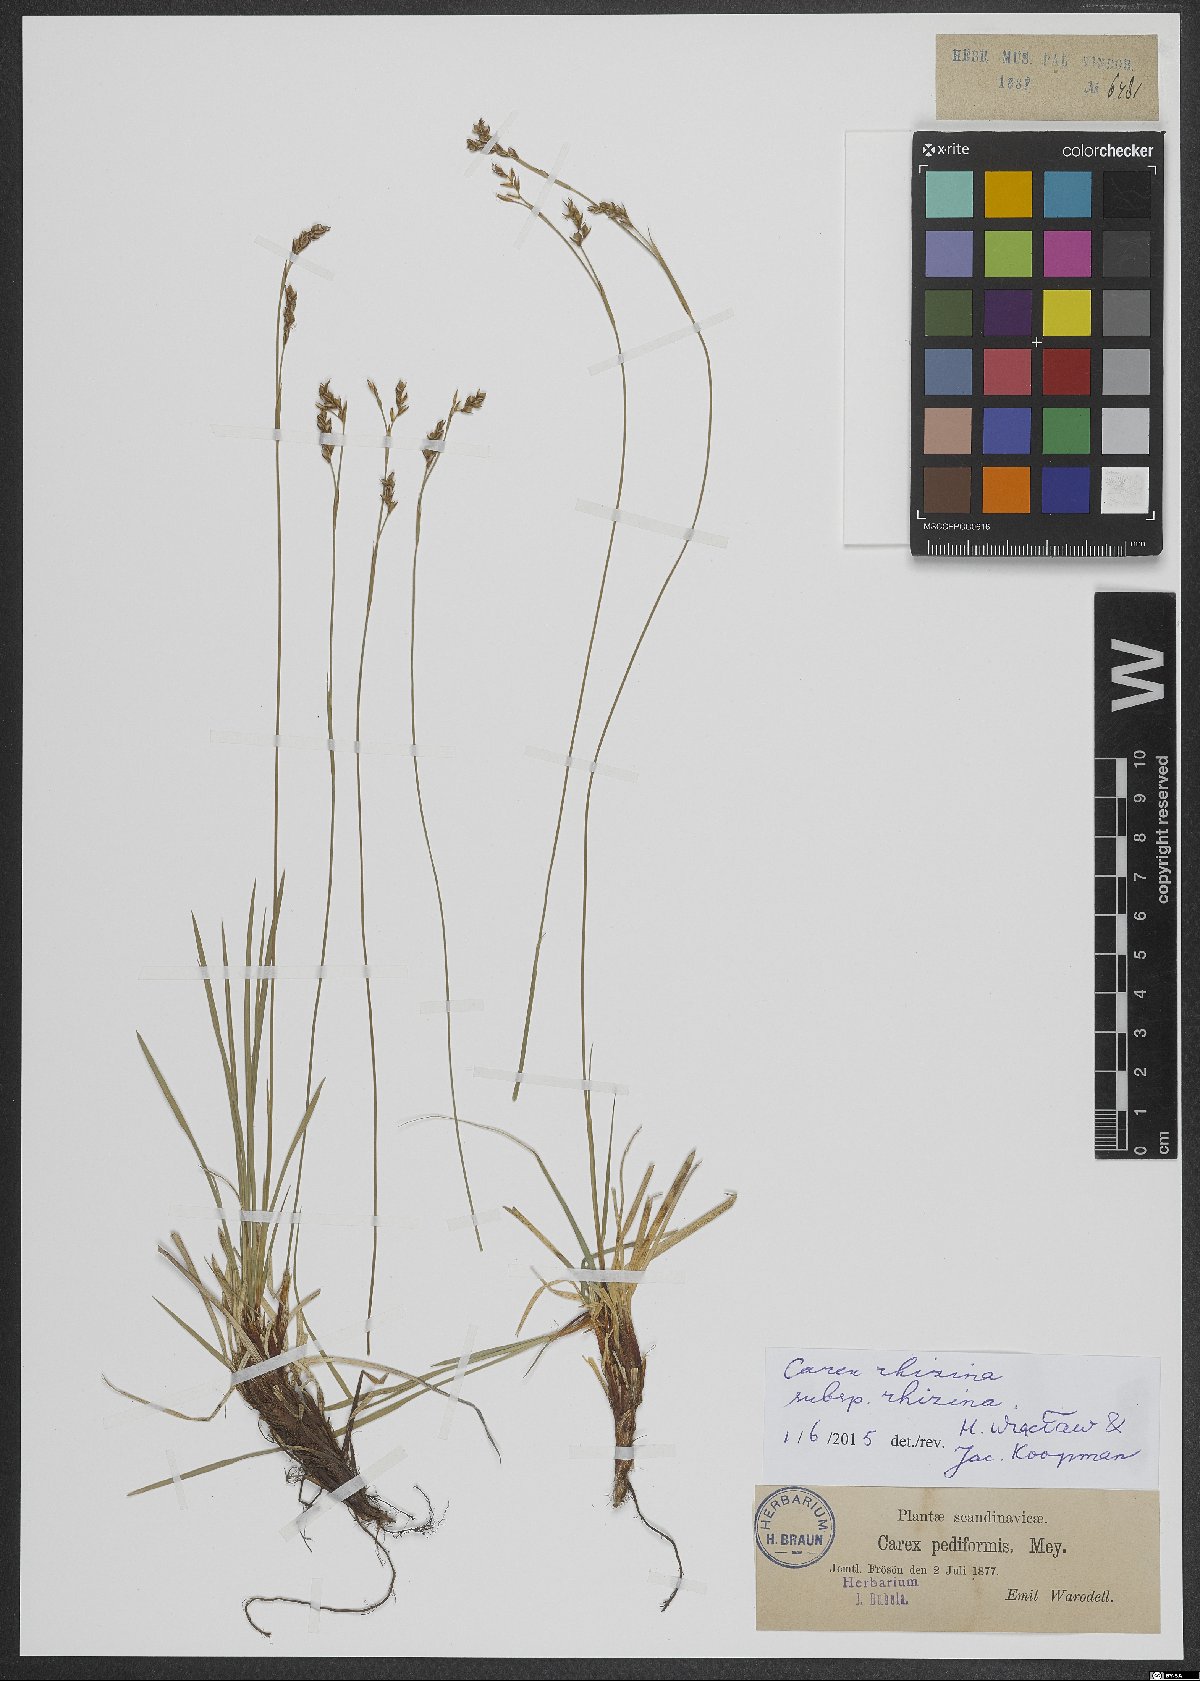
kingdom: Plantae
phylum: Tracheophyta
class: Liliopsida
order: Poales
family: Cyperaceae
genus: Carex
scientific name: Carex rhizina
